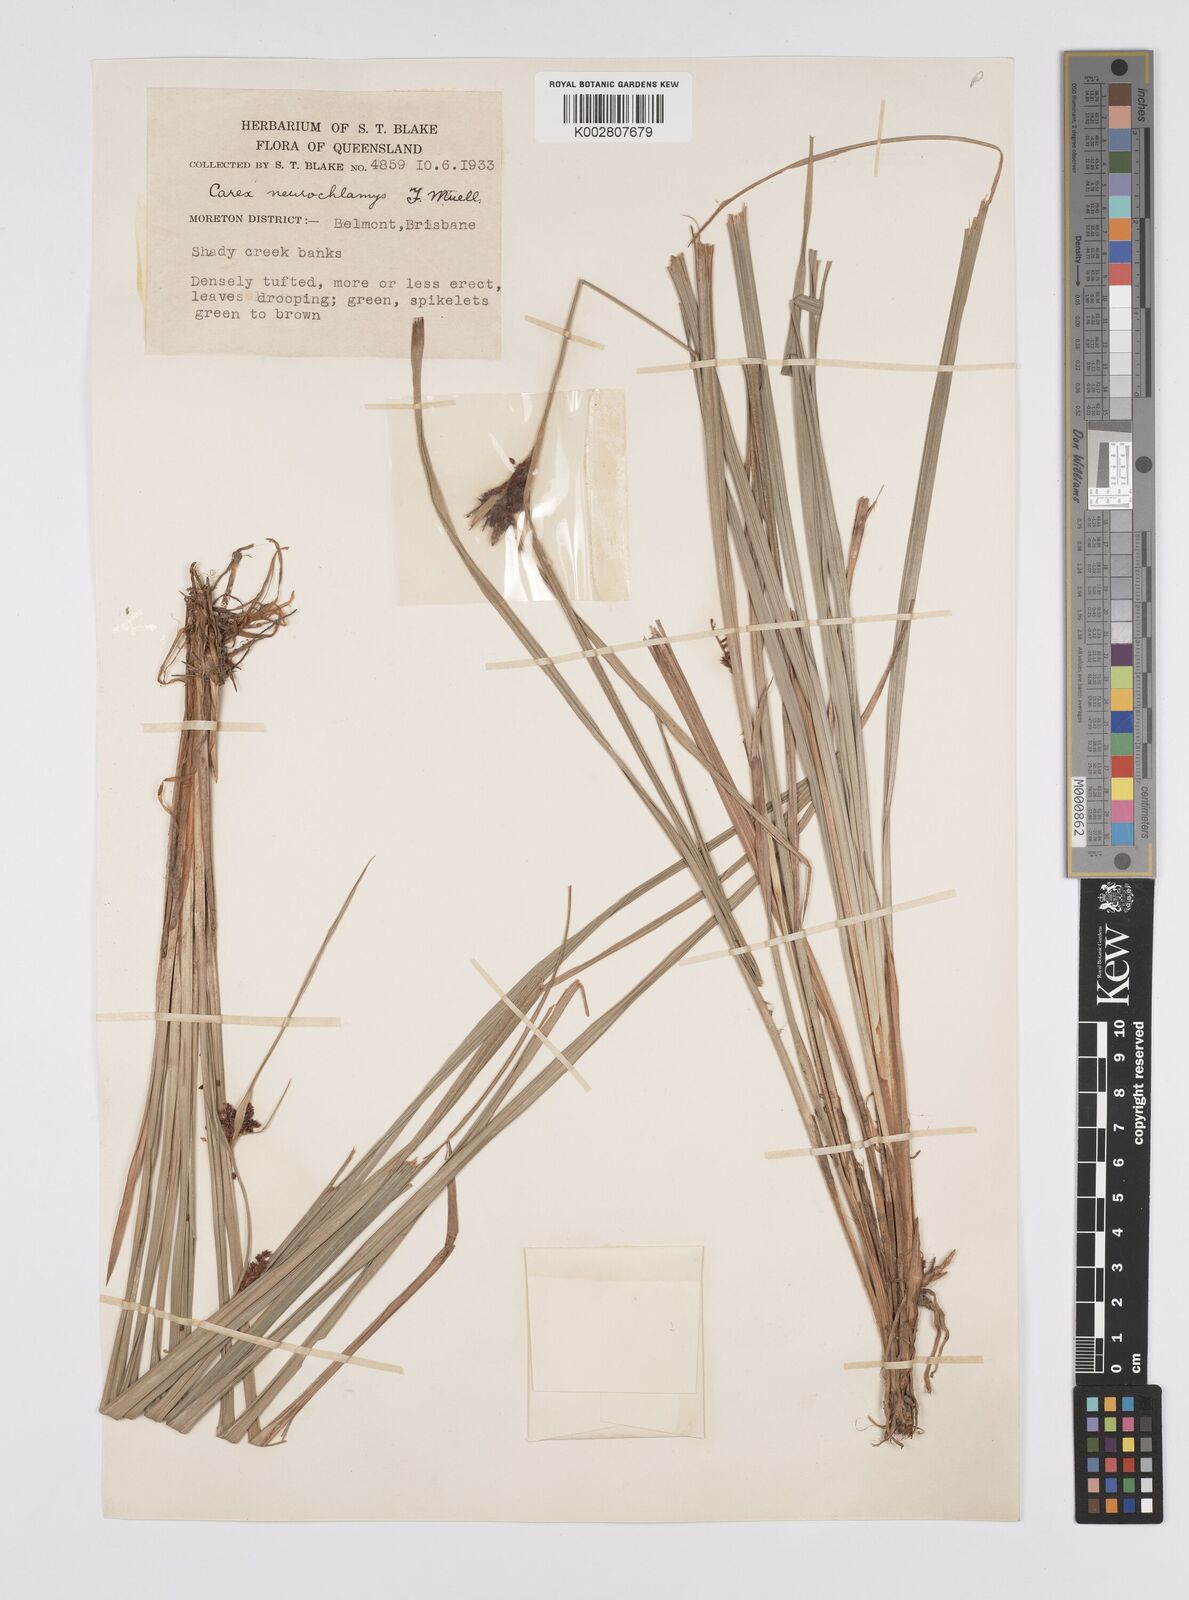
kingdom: Plantae
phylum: Tracheophyta
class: Liliopsida
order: Poales
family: Cyperaceae
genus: Carex
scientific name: Carex maculata
